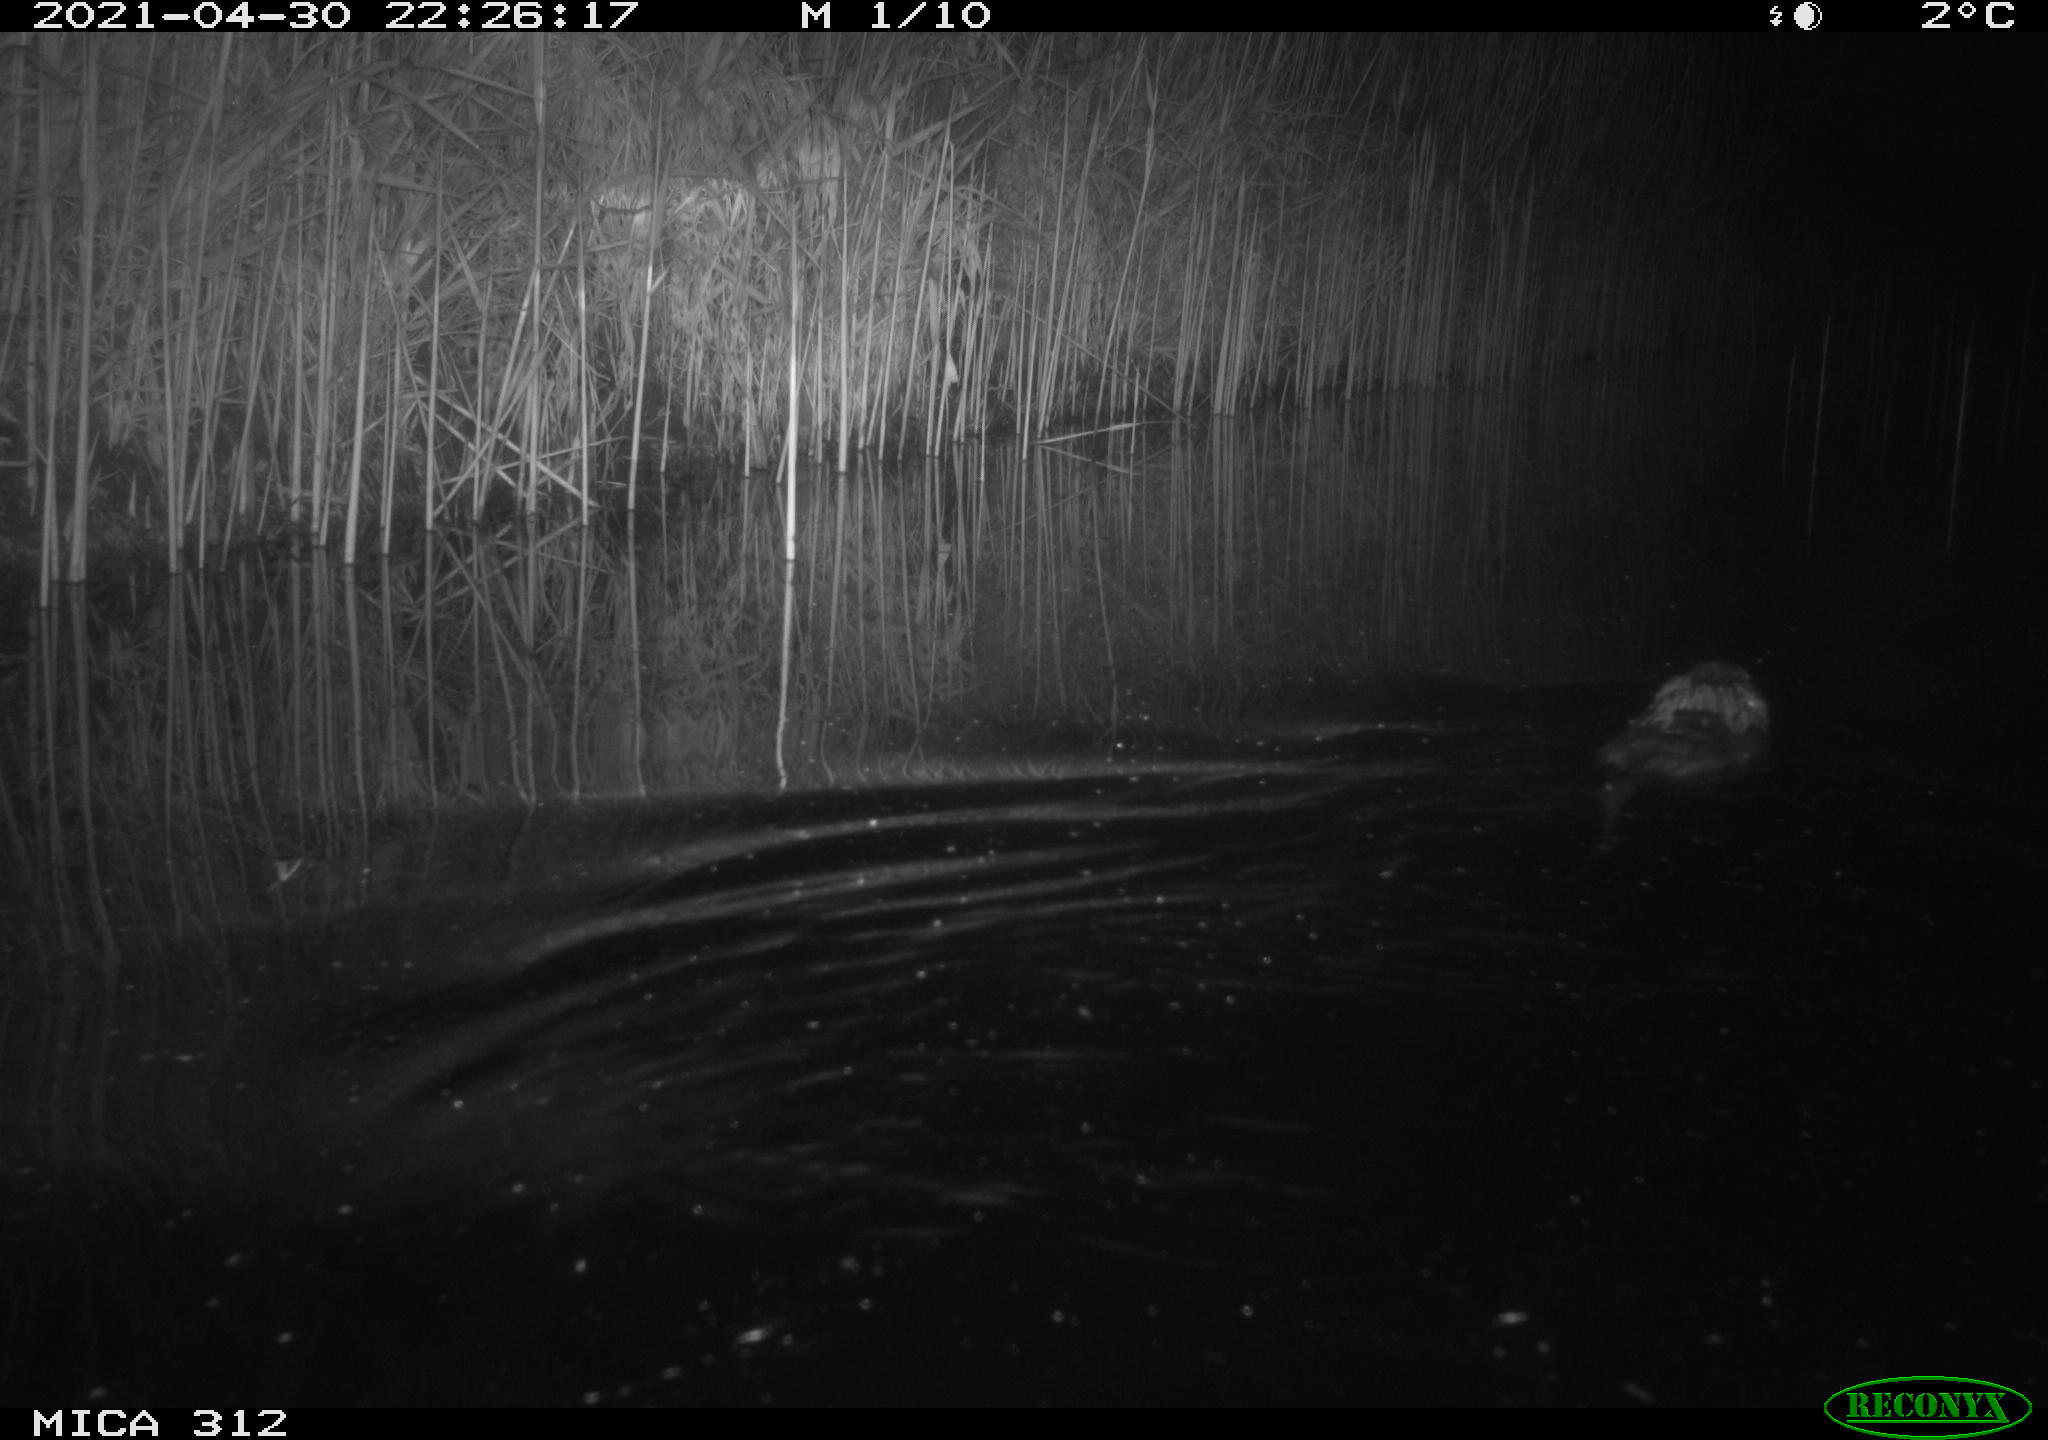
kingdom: Animalia
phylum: Chordata
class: Mammalia
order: Rodentia
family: Cricetidae
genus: Ondatra
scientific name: Ondatra zibethicus
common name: Muskrat
